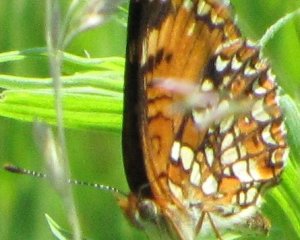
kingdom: Animalia
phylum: Arthropoda
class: Insecta
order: Lepidoptera
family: Nymphalidae
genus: Chlosyne
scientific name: Chlosyne harrisii
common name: Harris's Checkerspot
